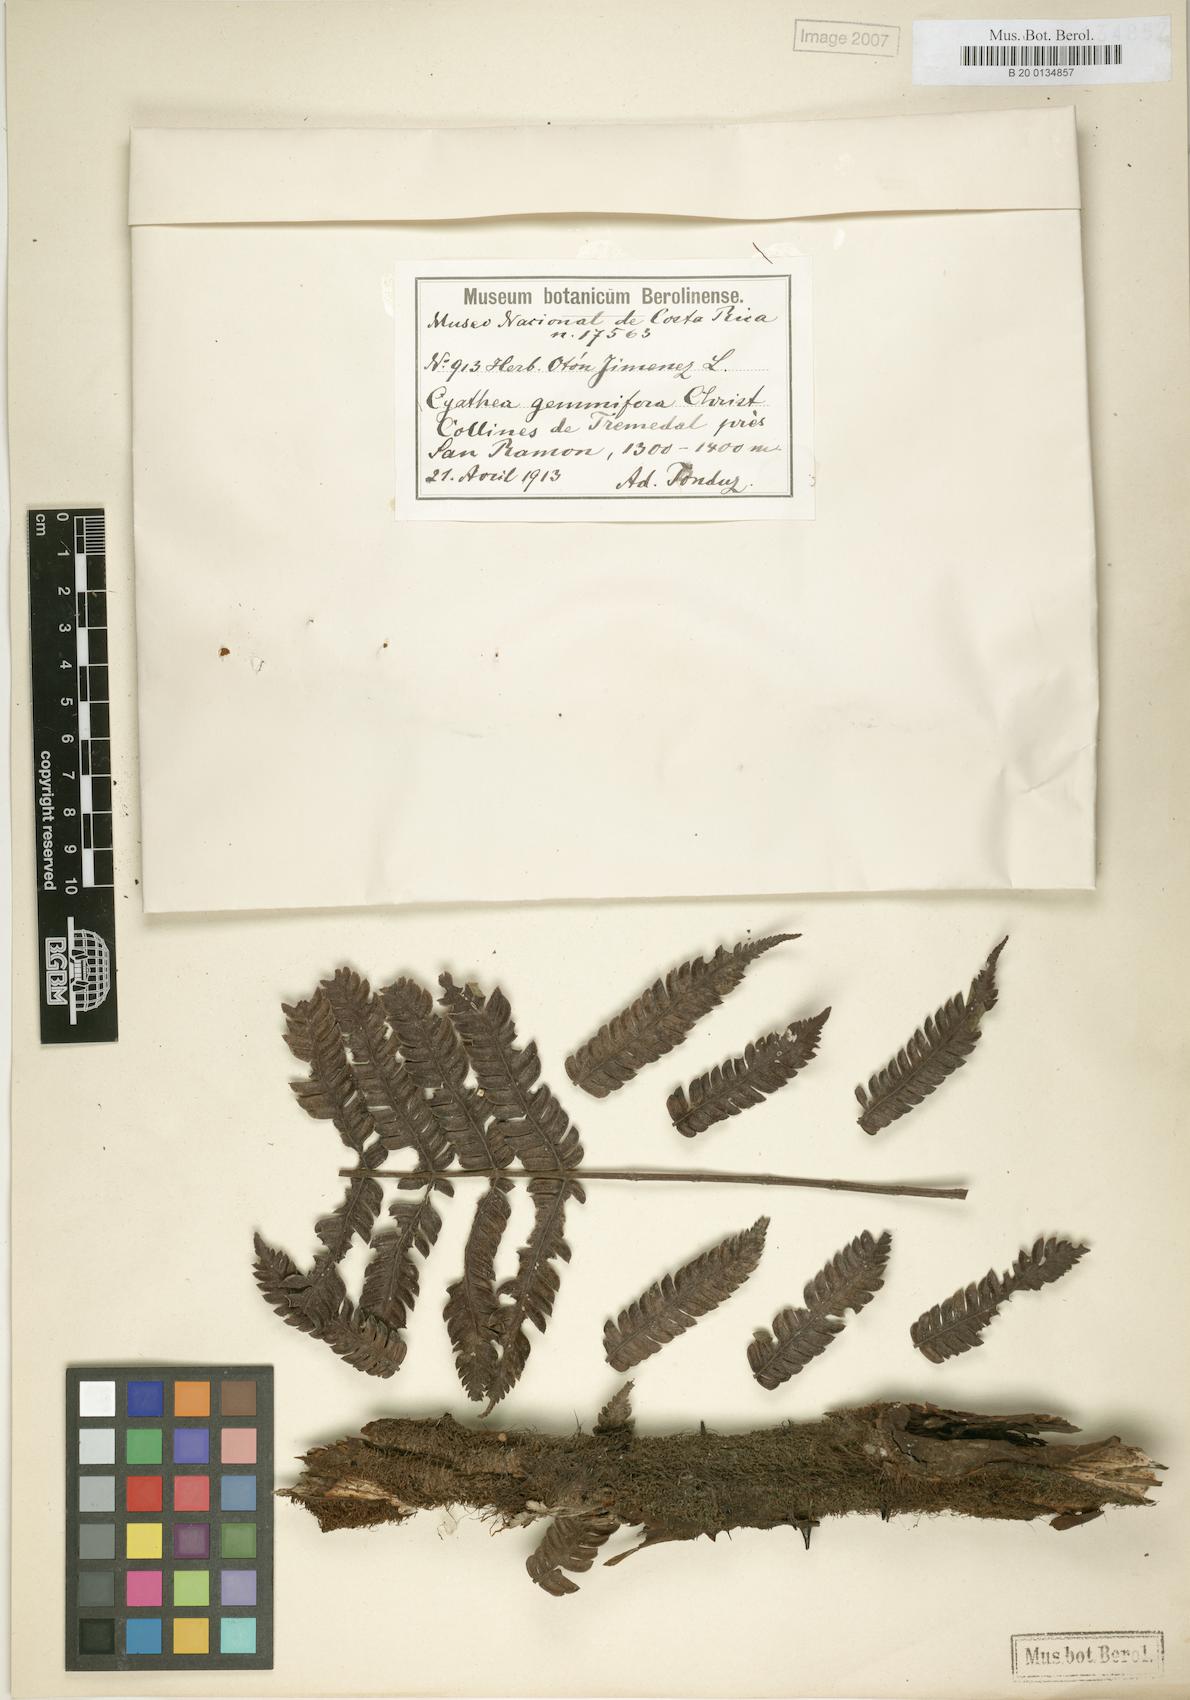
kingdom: Plantae
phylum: Tracheophyta
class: Polypodiopsida
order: Cyatheales
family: Cyatheaceae
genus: Alsophila
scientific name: Alsophila firma
